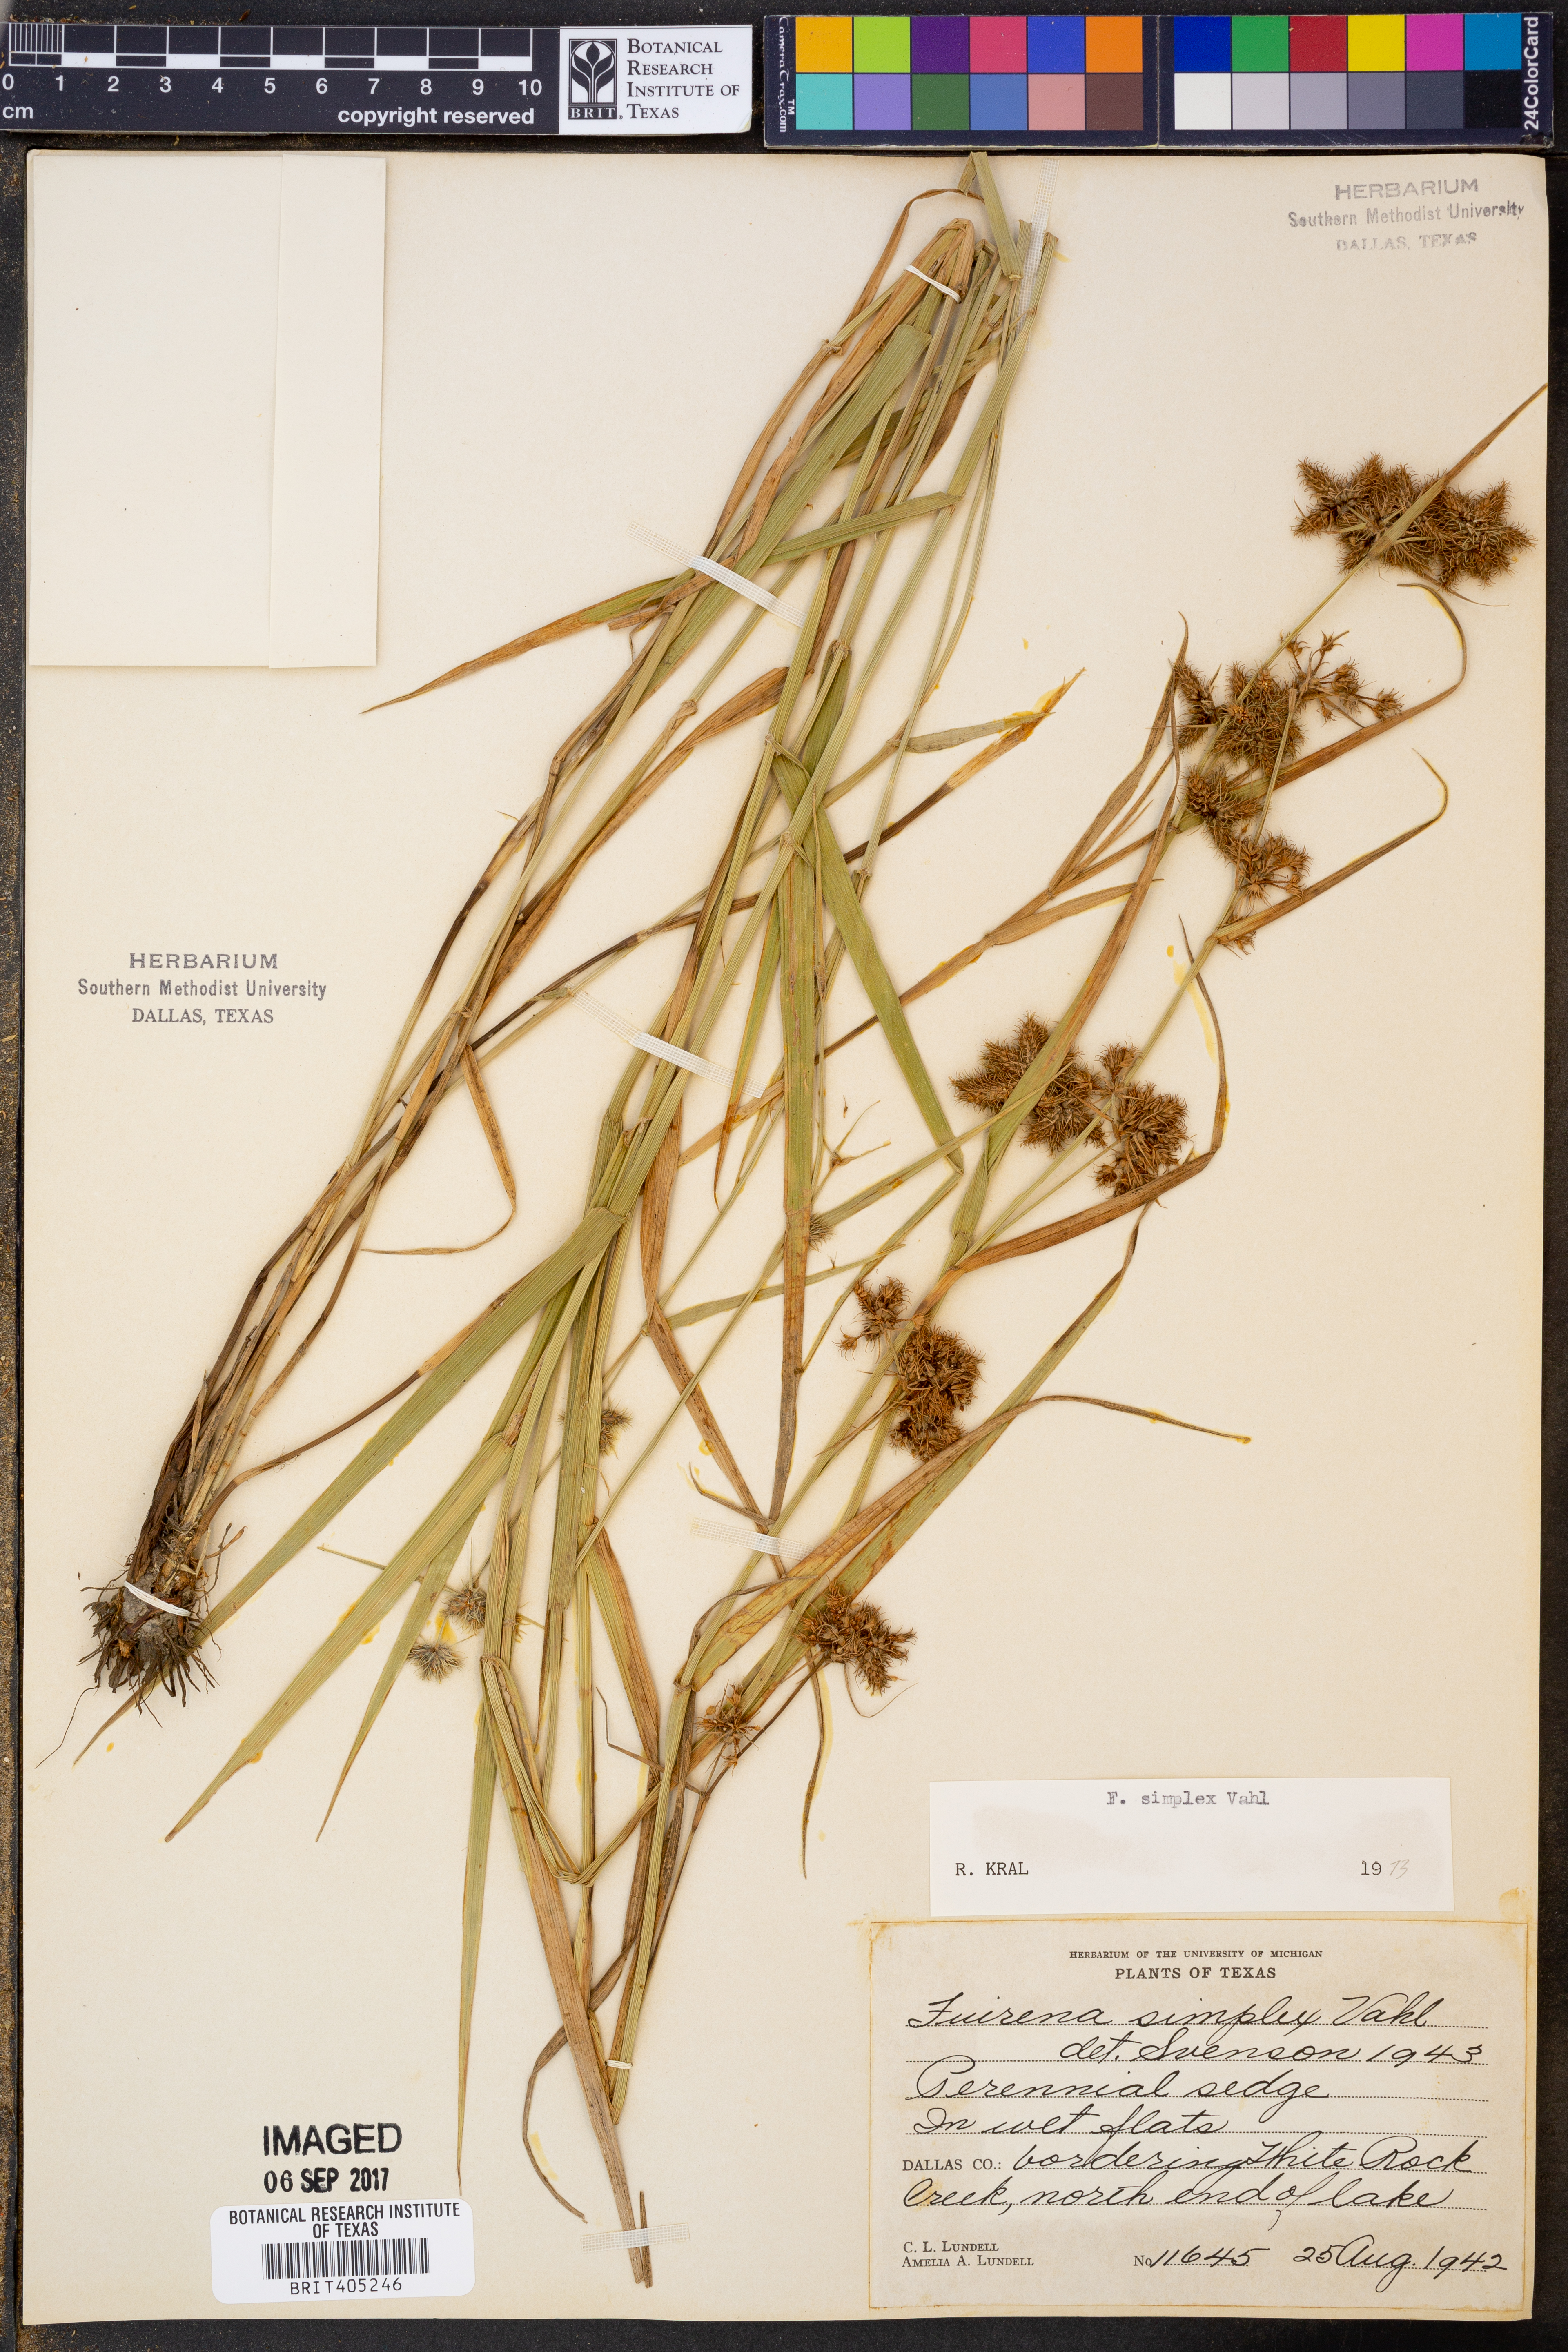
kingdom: Plantae
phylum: Tracheophyta
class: Liliopsida
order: Poales
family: Cyperaceae
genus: Fuirena
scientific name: Fuirena simplex
